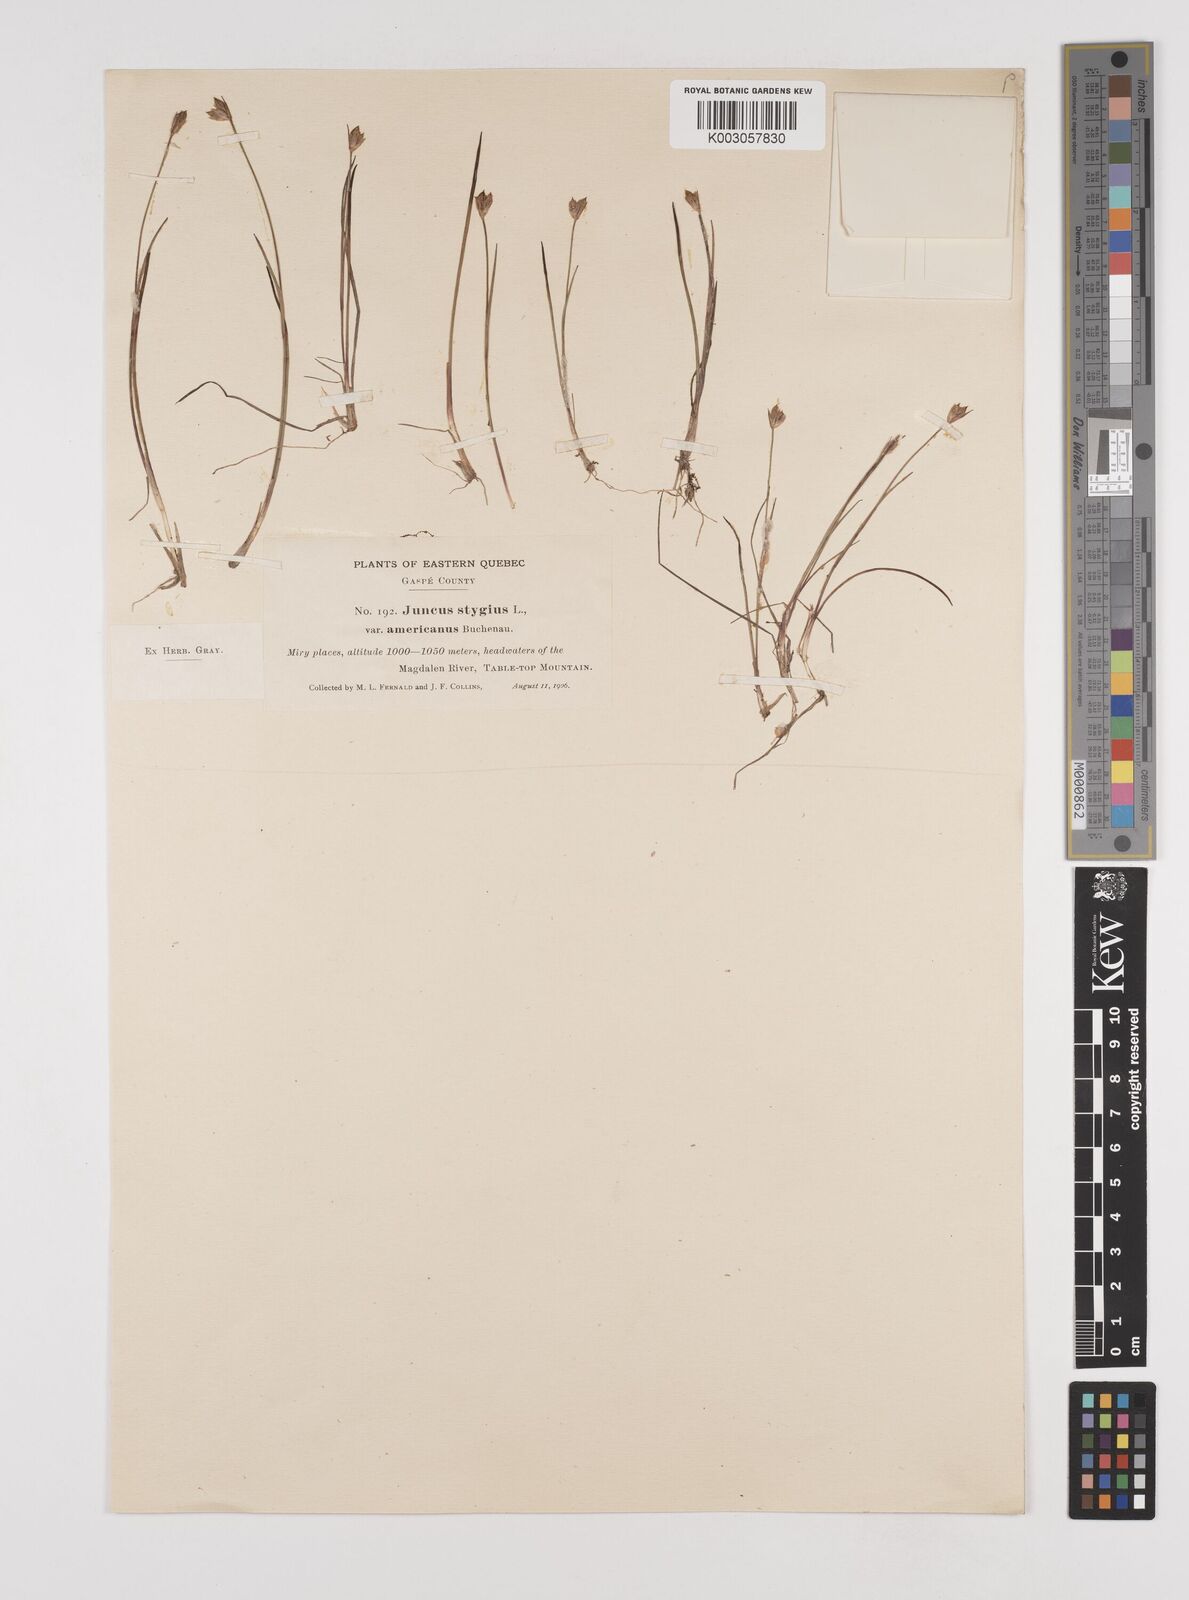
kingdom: Plantae
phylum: Tracheophyta
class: Liliopsida
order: Poales
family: Juncaceae
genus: Juncus
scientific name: Juncus stygius
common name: Bog rush
